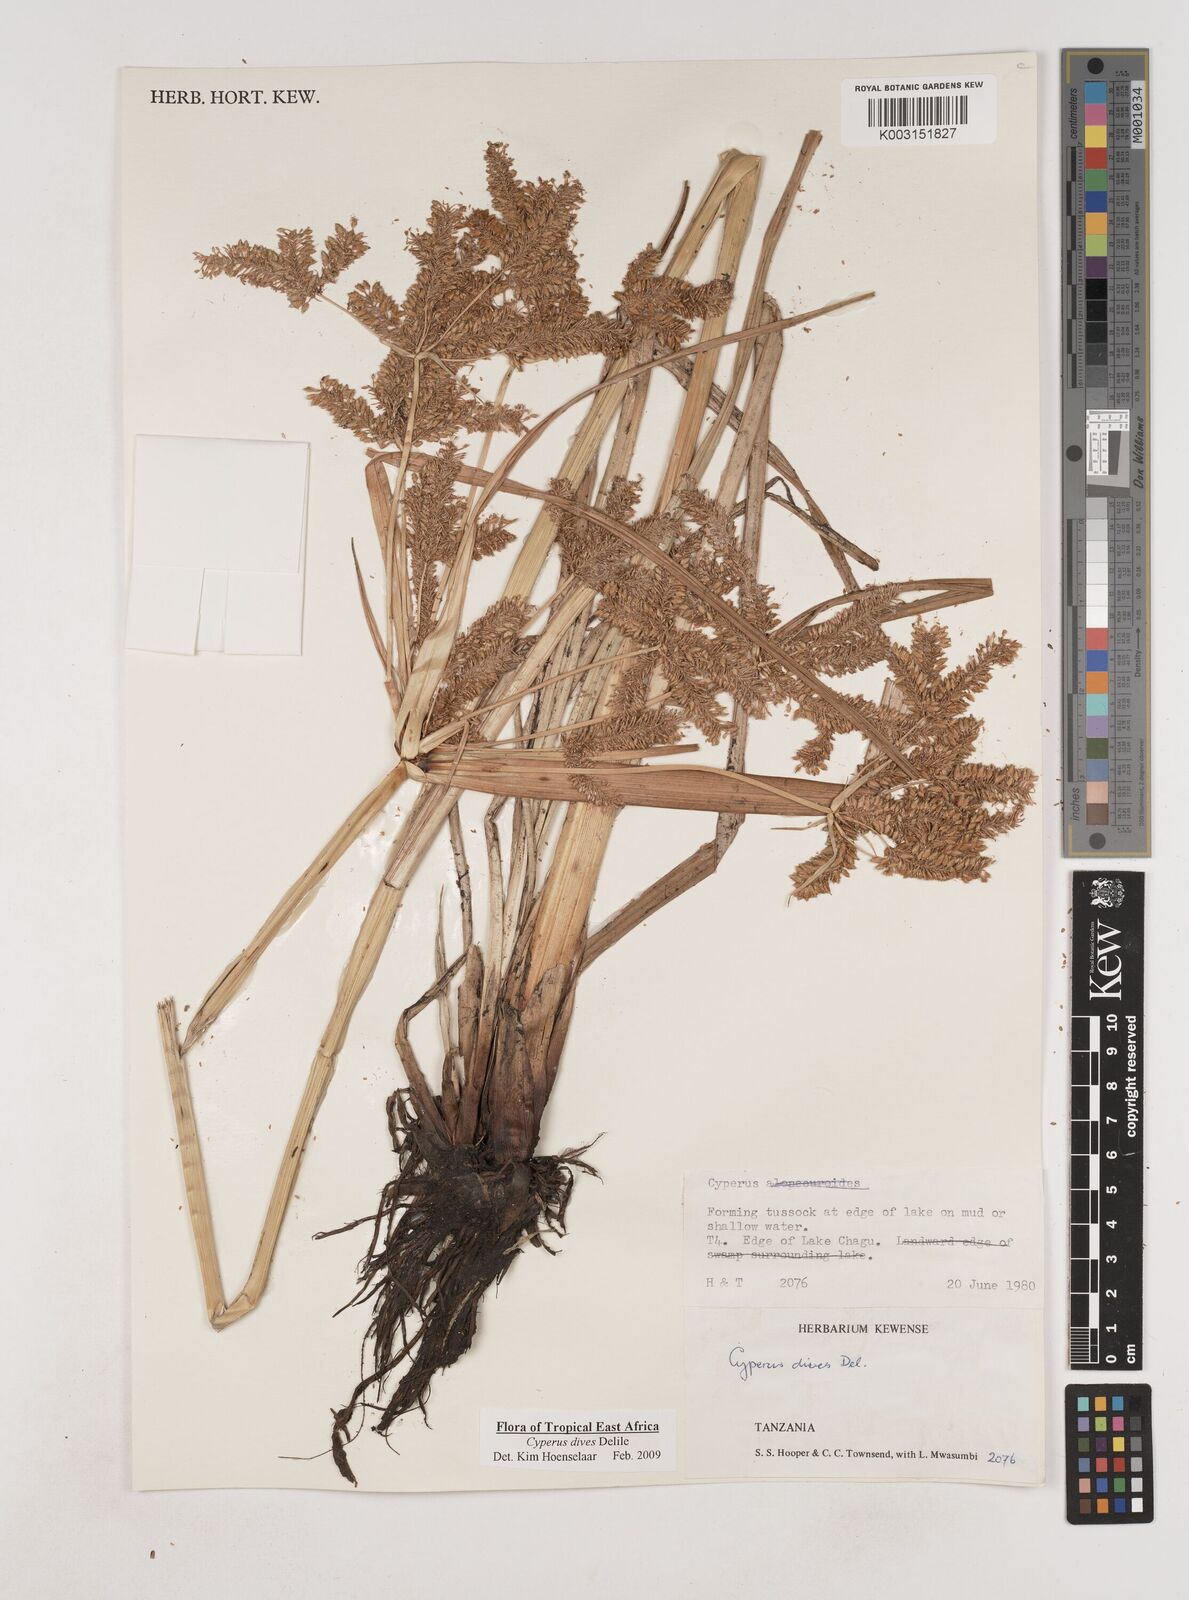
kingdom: Plantae
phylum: Tracheophyta
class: Liliopsida
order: Poales
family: Cyperaceae
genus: Cyperus
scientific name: Cyperus dives
